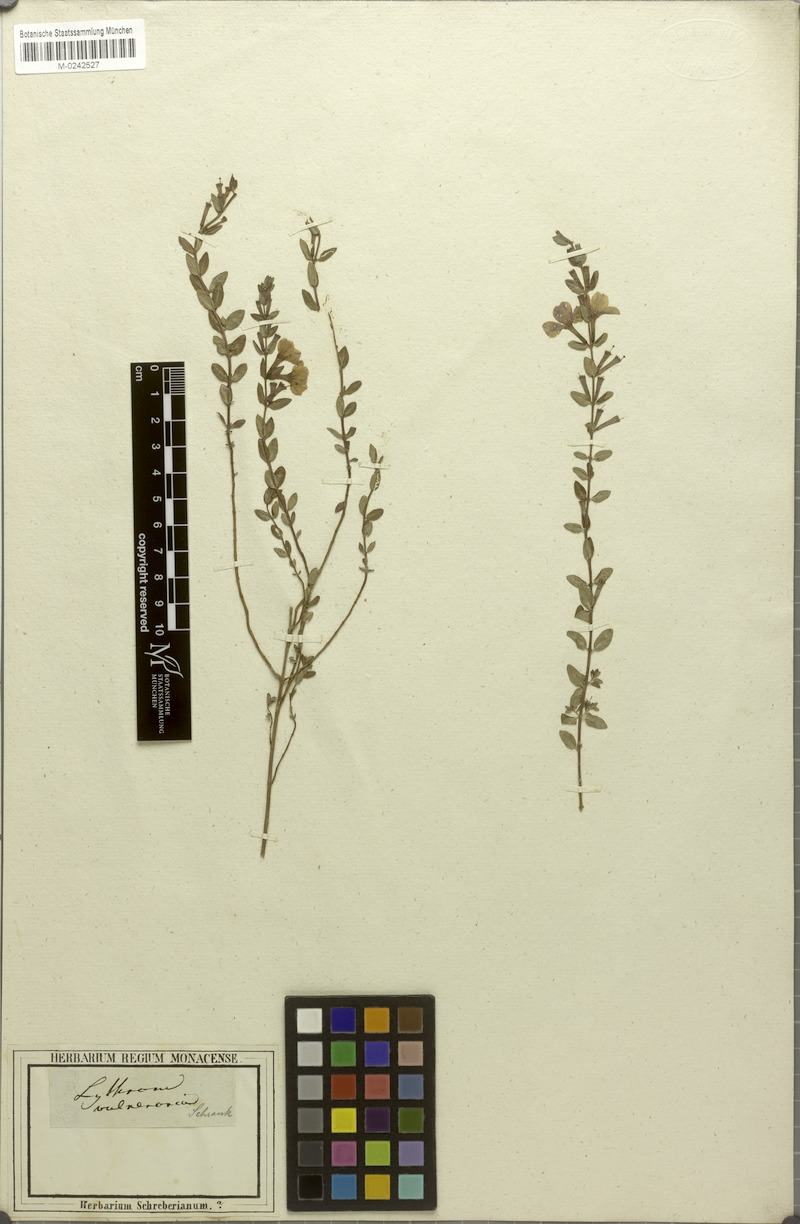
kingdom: Plantae
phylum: Tracheophyta
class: Magnoliopsida
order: Myrtales
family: Lythraceae
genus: Lythrum
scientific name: Lythrum flagellare
